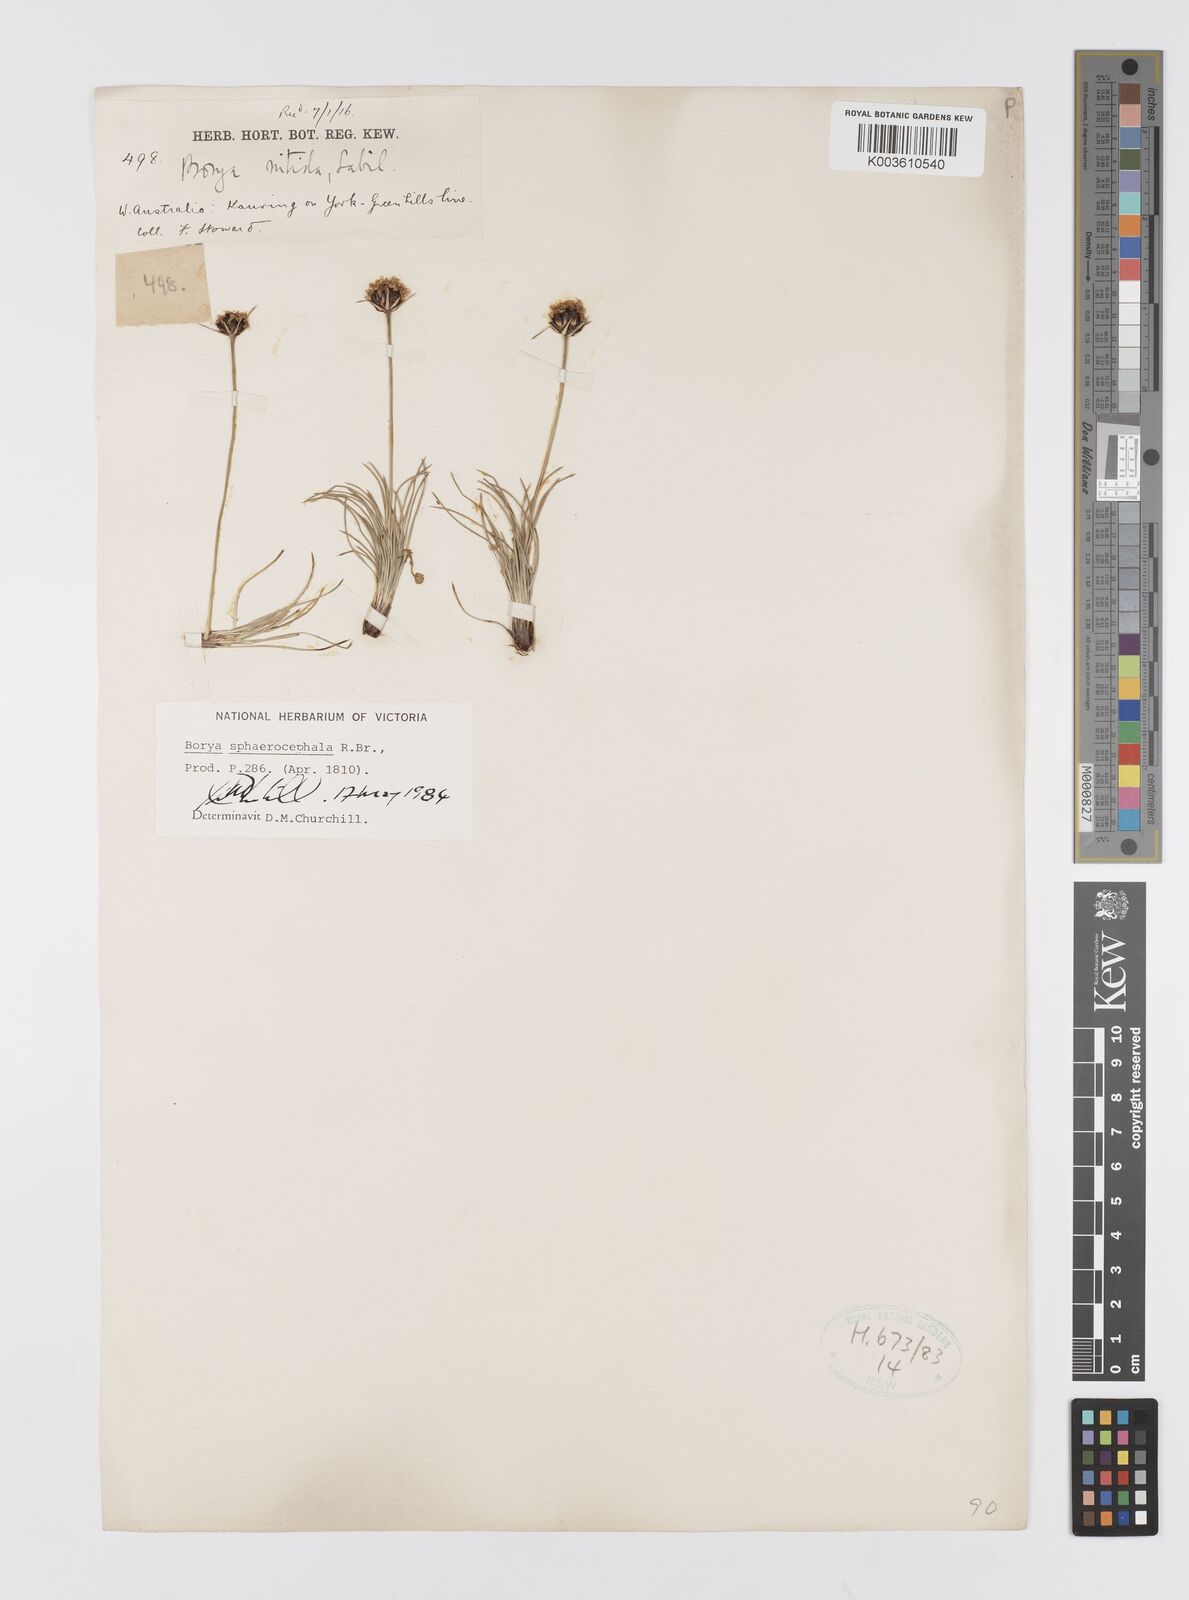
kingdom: Plantae
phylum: Tracheophyta
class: Liliopsida
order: Asparagales
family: Boryaceae
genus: Borya
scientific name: Borya sphaerocephala
